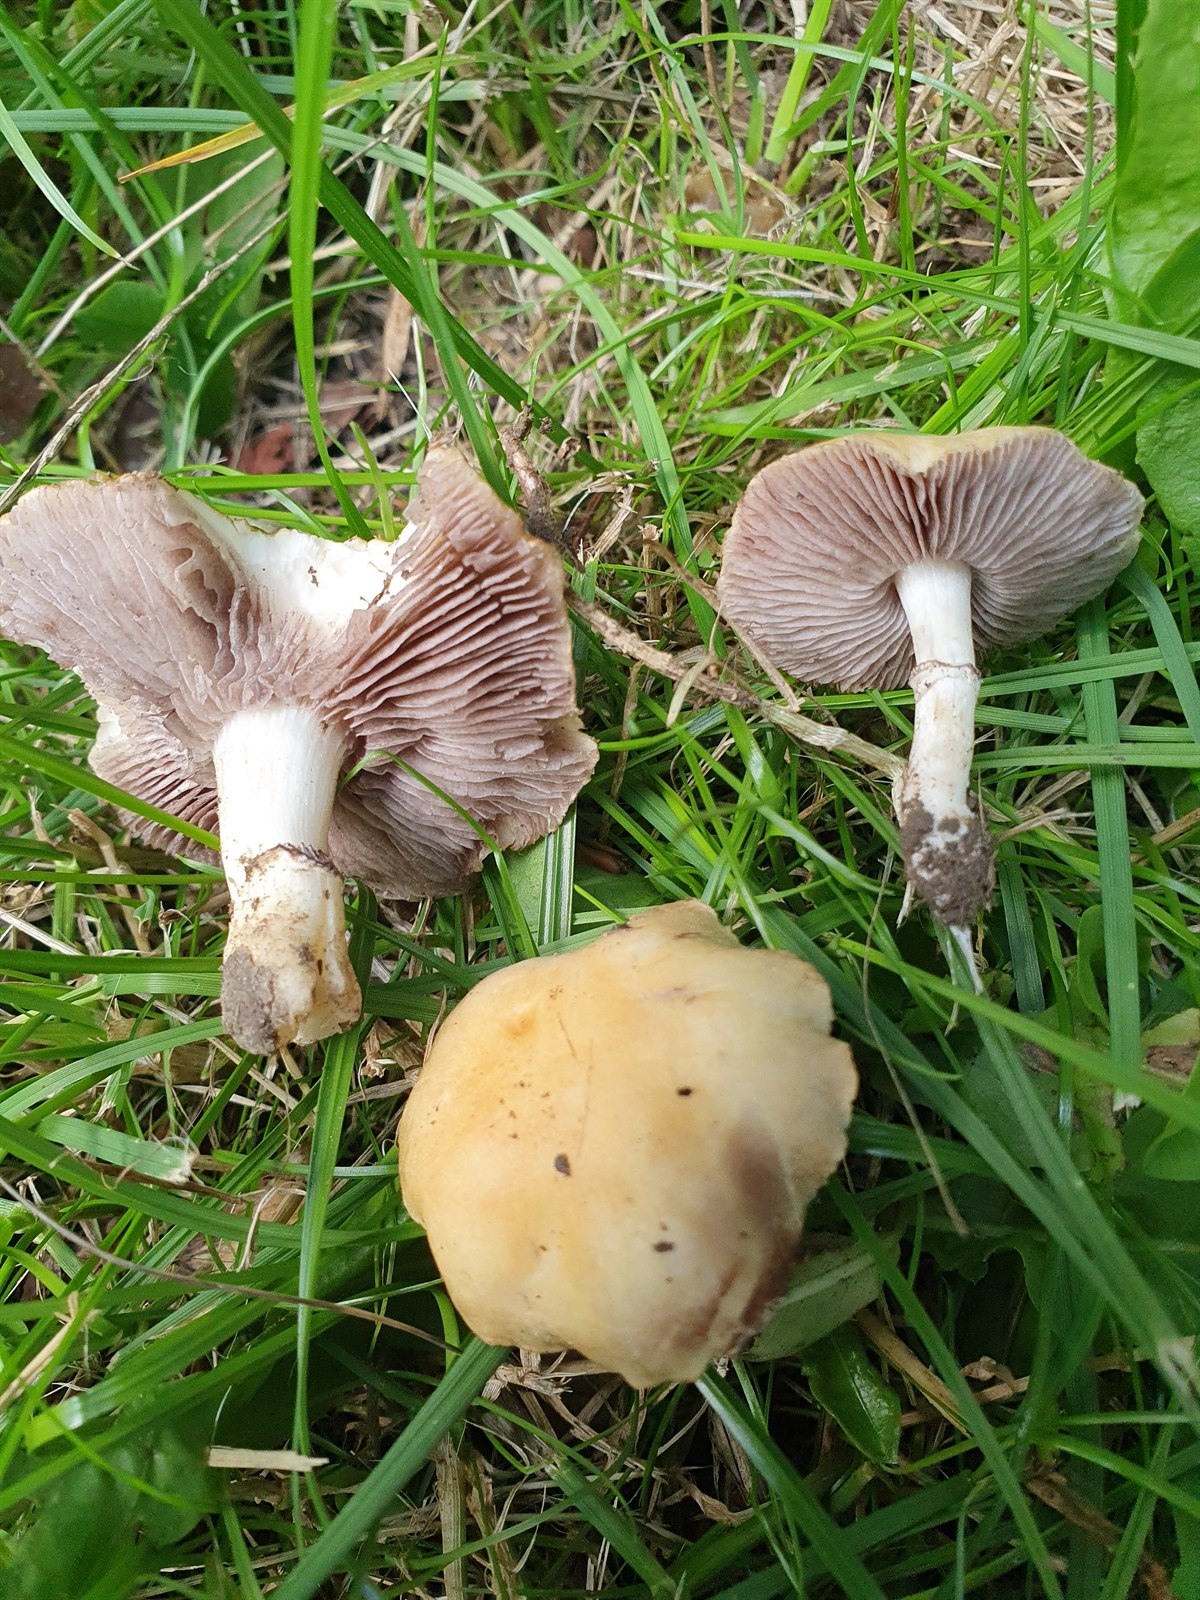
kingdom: Fungi
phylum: Basidiomycota
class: Agaricomycetes
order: Agaricales
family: Hymenogastraceae
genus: Psilocybe
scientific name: Psilocybe coronilla
